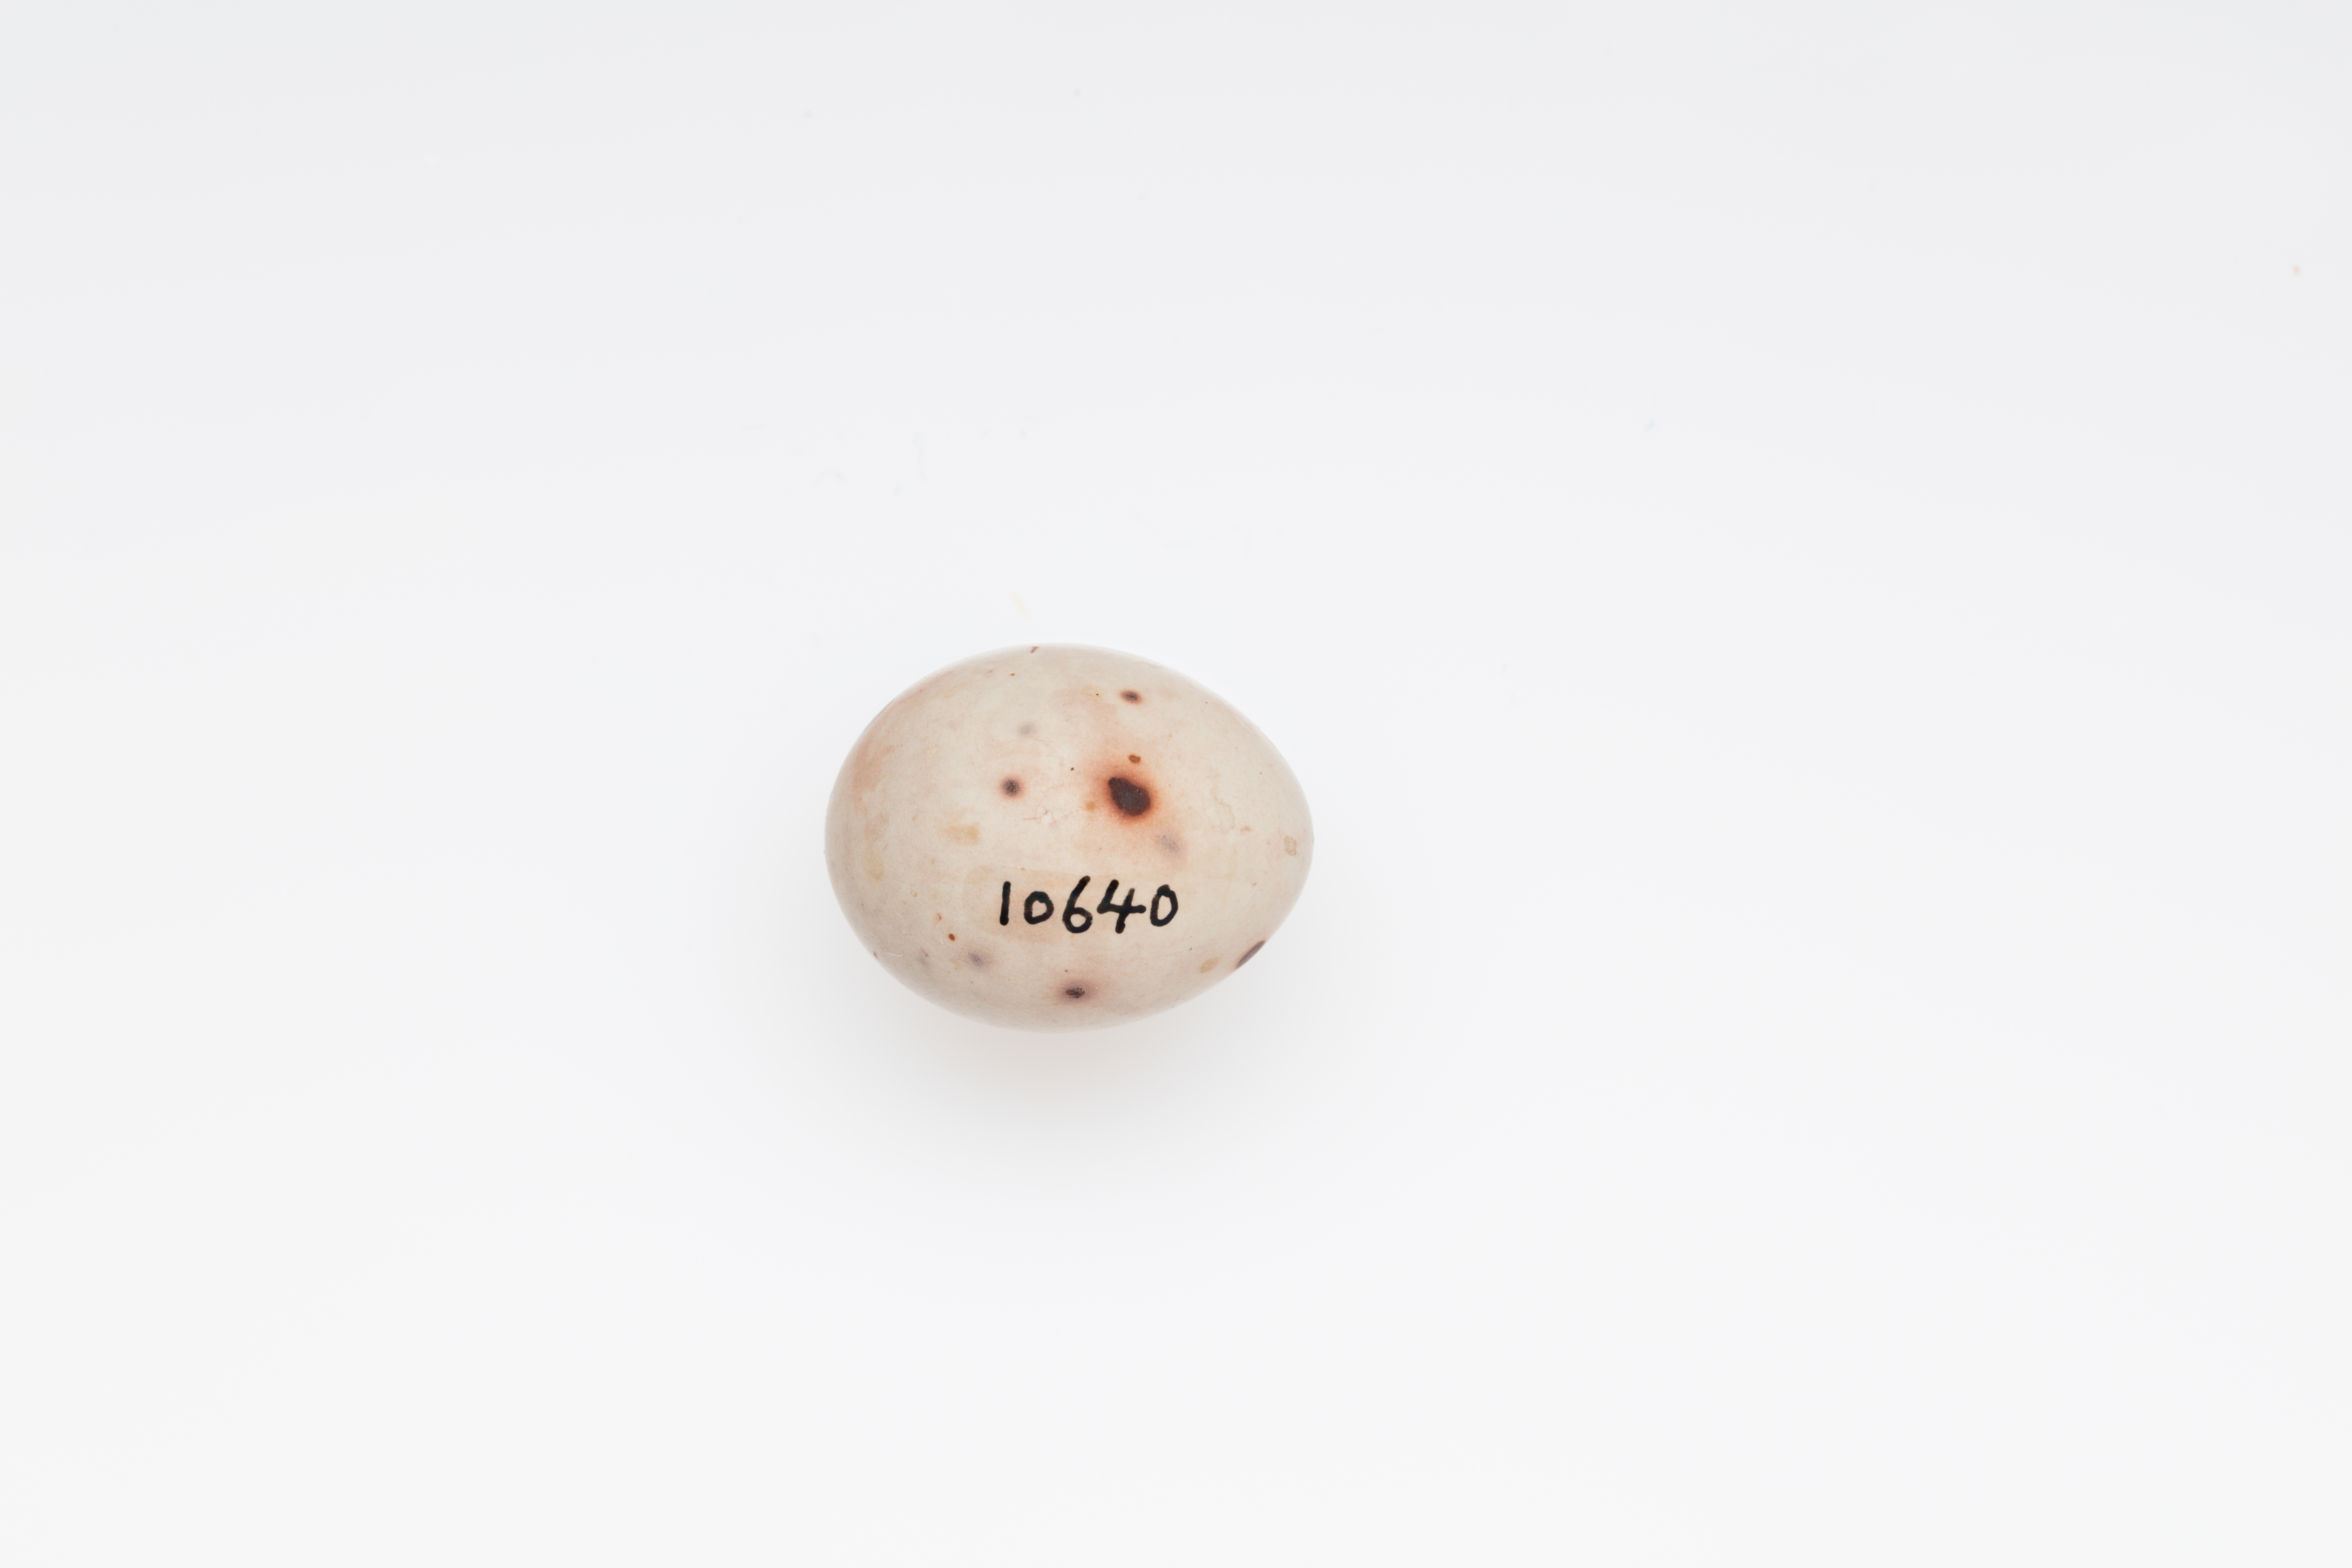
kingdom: Animalia
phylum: Chordata
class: Aves
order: Passeriformes
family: Fringillidae
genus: Fringilla
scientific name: Fringilla coelebs
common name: Common chaffinch
